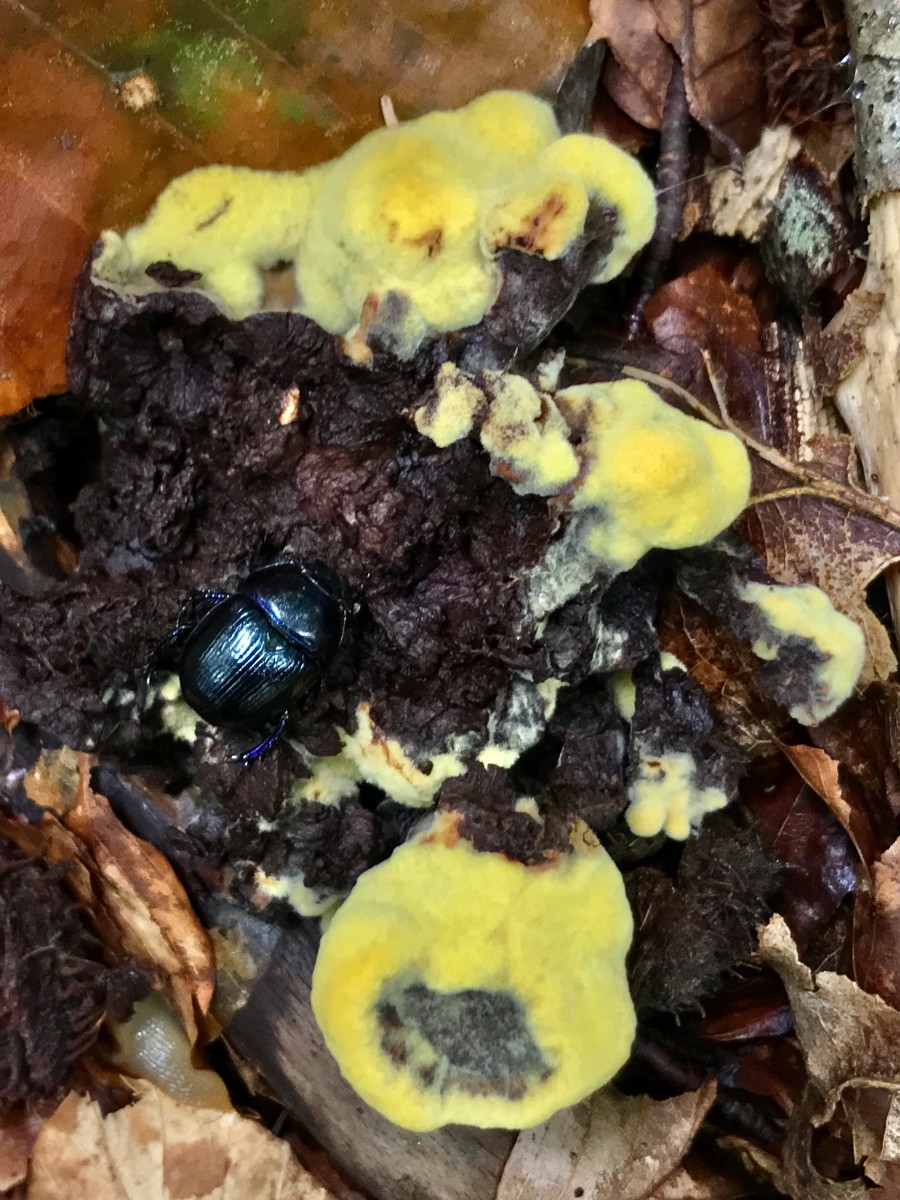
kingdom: Fungi
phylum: Basidiomycota
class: Agaricomycetes
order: Polyporales
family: Laetiporaceae
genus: Phaeolus
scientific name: Phaeolus schweinitzii
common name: brunporesvamp
